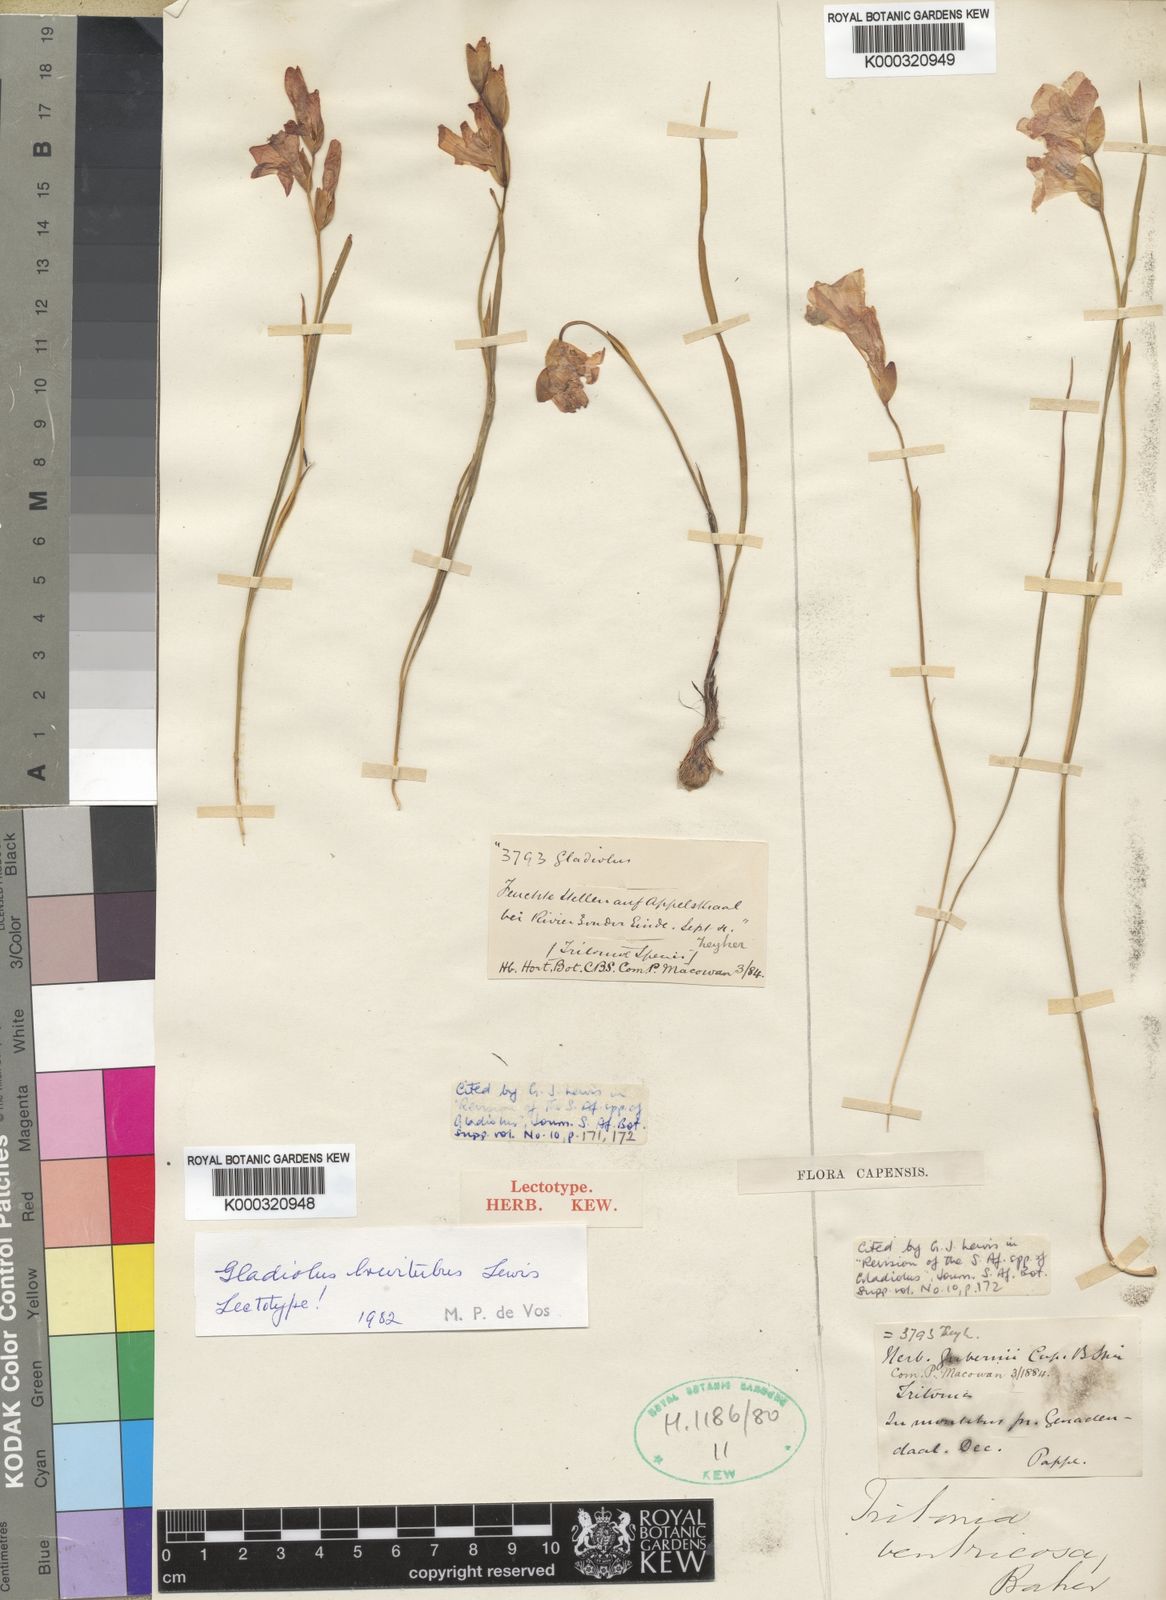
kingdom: Plantae
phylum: Tracheophyta
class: Liliopsida
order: Asparagales
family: Iridaceae
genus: Gladiolus
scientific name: Gladiolus brevitubus
